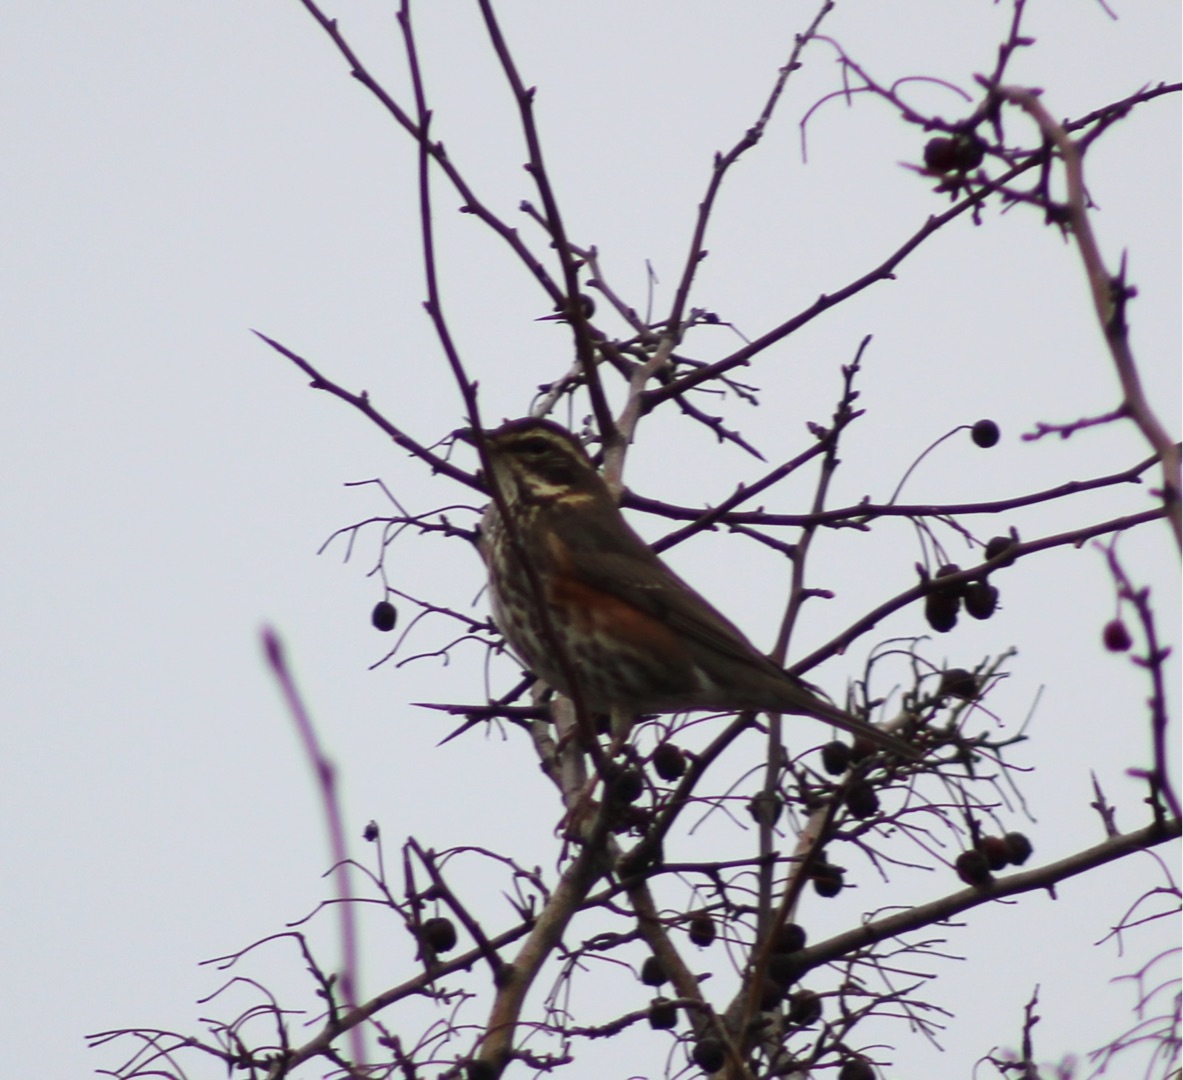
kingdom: Animalia
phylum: Chordata
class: Aves
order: Passeriformes
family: Turdidae
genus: Turdus
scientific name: Turdus iliacus
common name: Vindrossel
